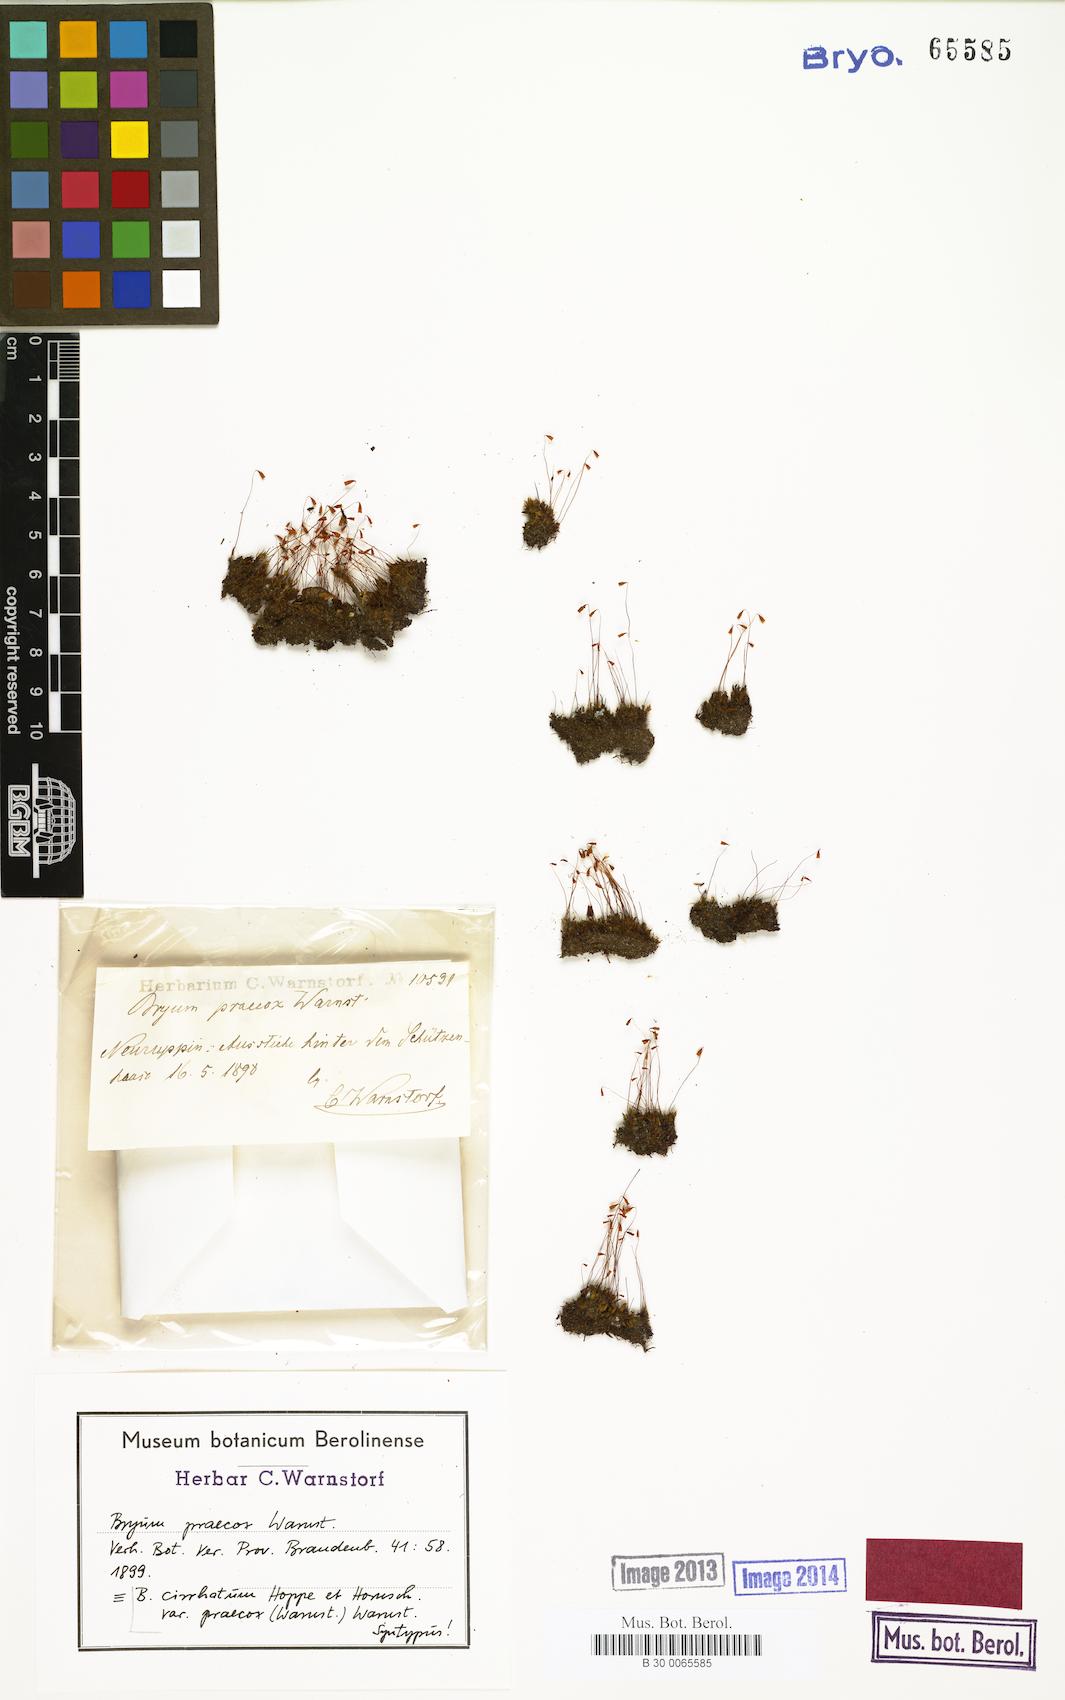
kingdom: Plantae
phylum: Bryophyta
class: Bryopsida
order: Bryales
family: Bryaceae
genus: Ptychostomum
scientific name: Ptychostomum lonchocaulon
